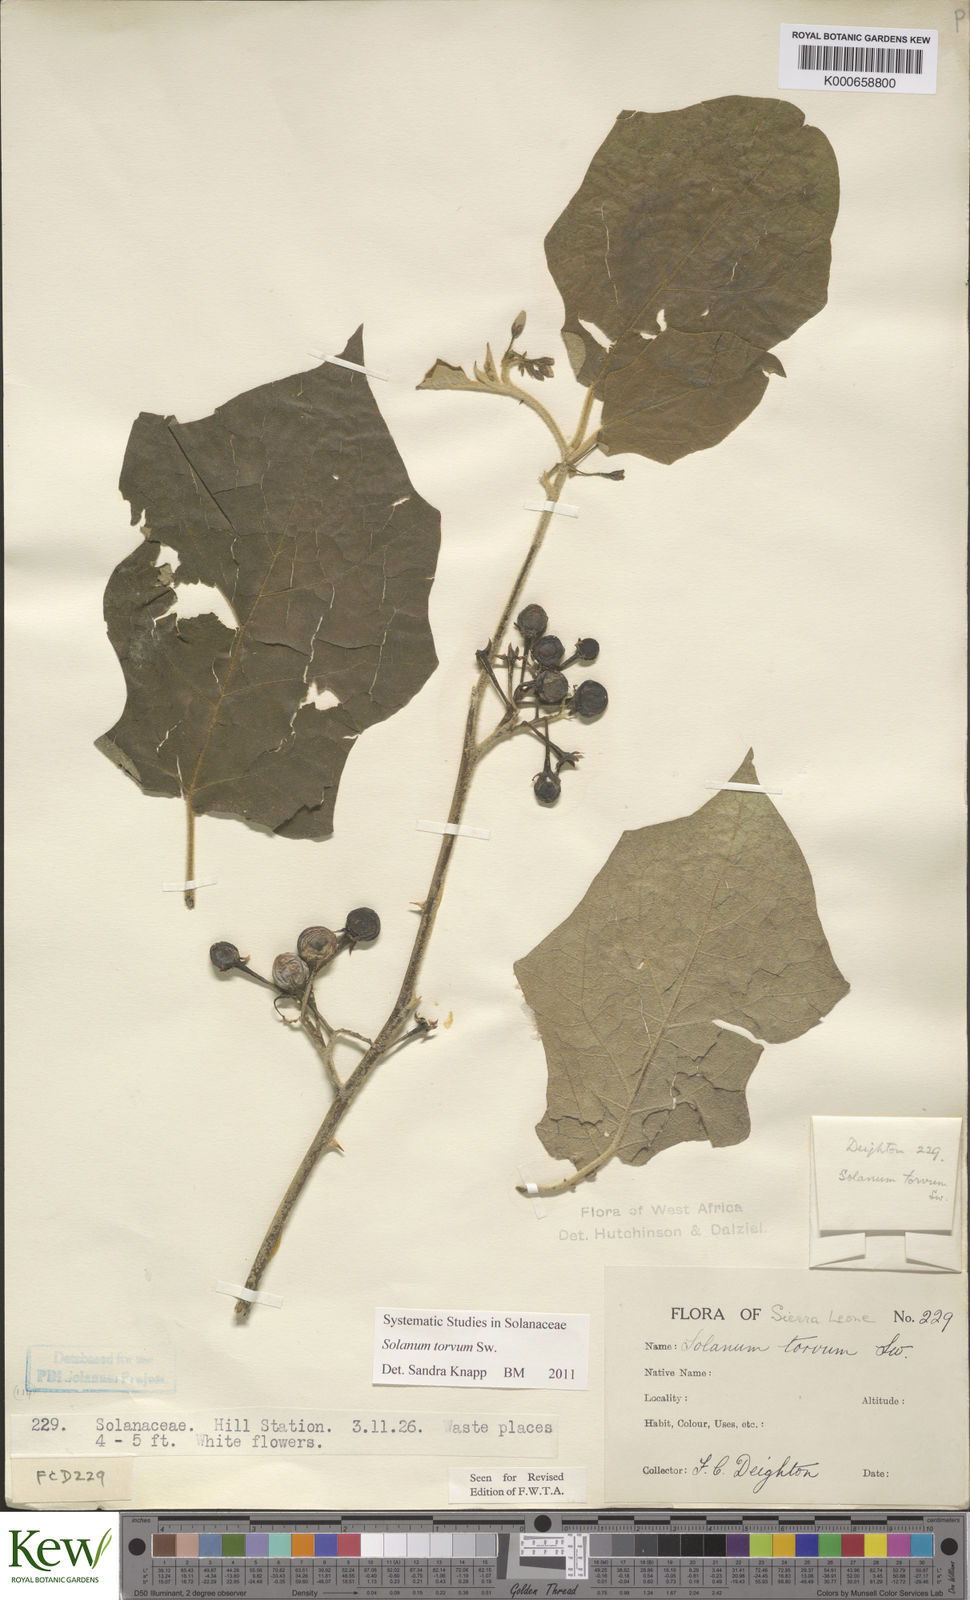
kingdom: Plantae
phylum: Tracheophyta
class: Magnoliopsida
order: Solanales
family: Solanaceae
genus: Solanum
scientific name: Solanum torvum
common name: Turkey berry
